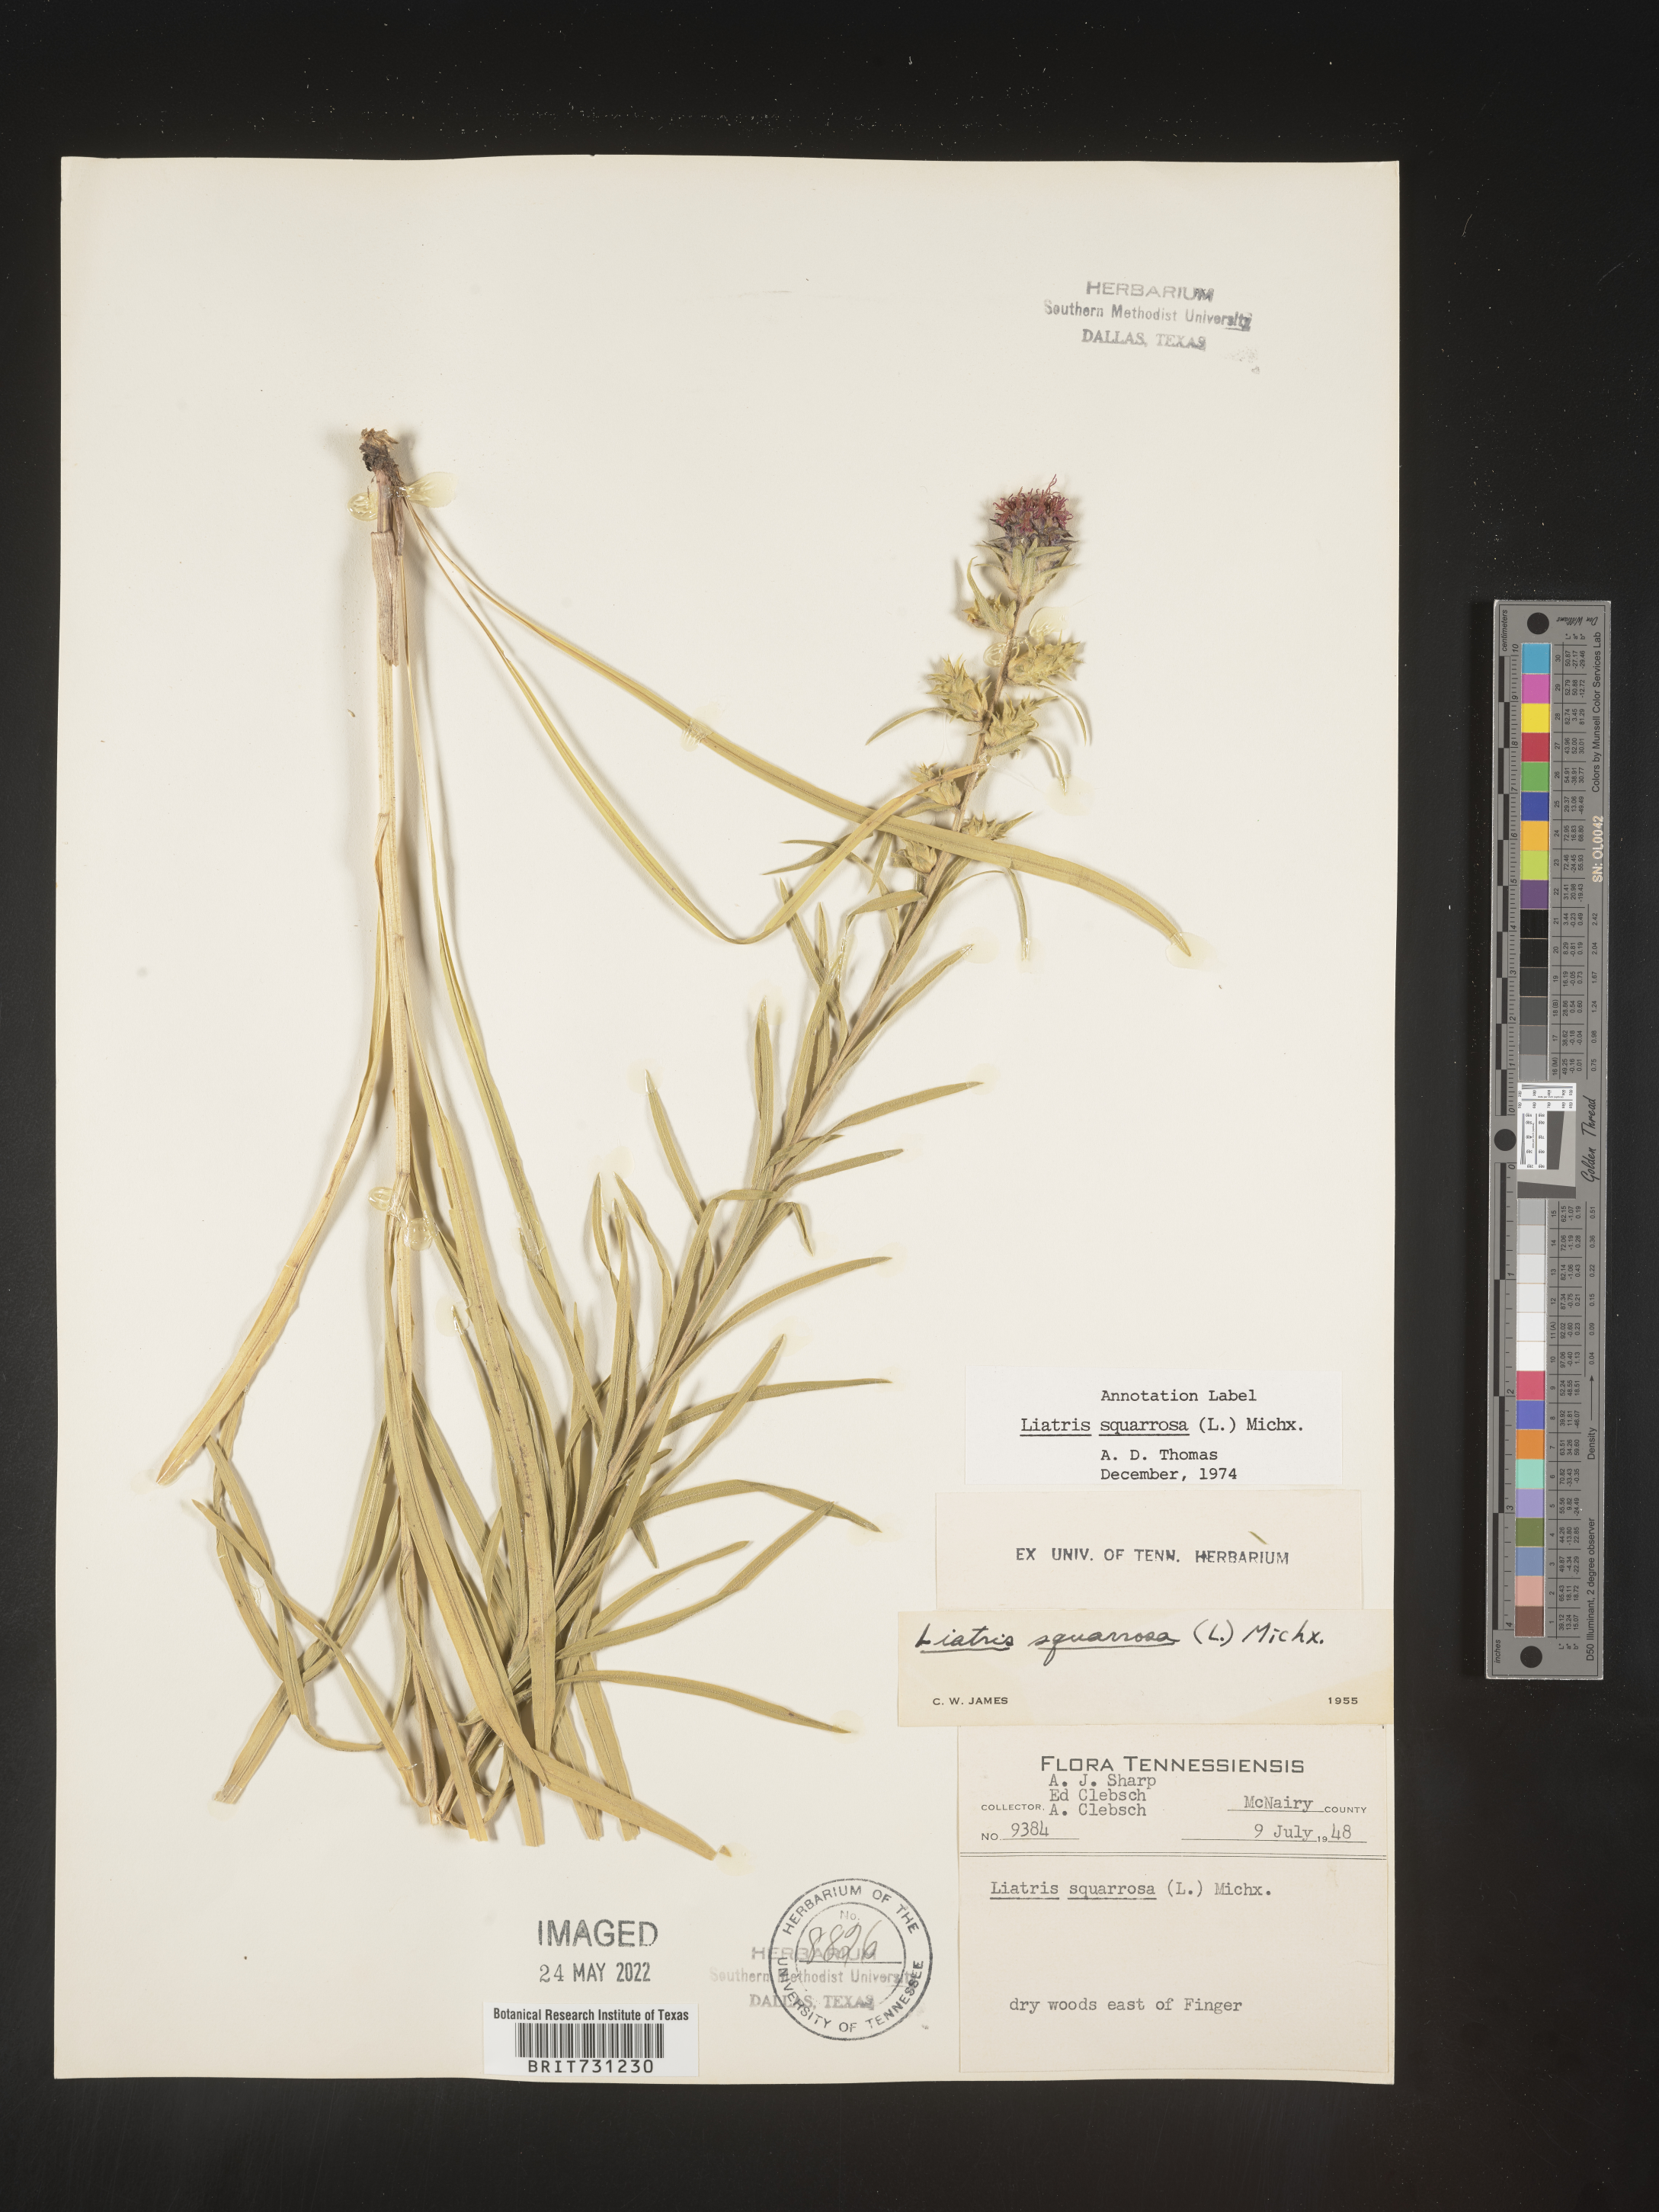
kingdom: Plantae
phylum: Tracheophyta
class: Magnoliopsida
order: Asterales
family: Asteraceae
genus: Liatris
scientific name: Liatris squarrosa
